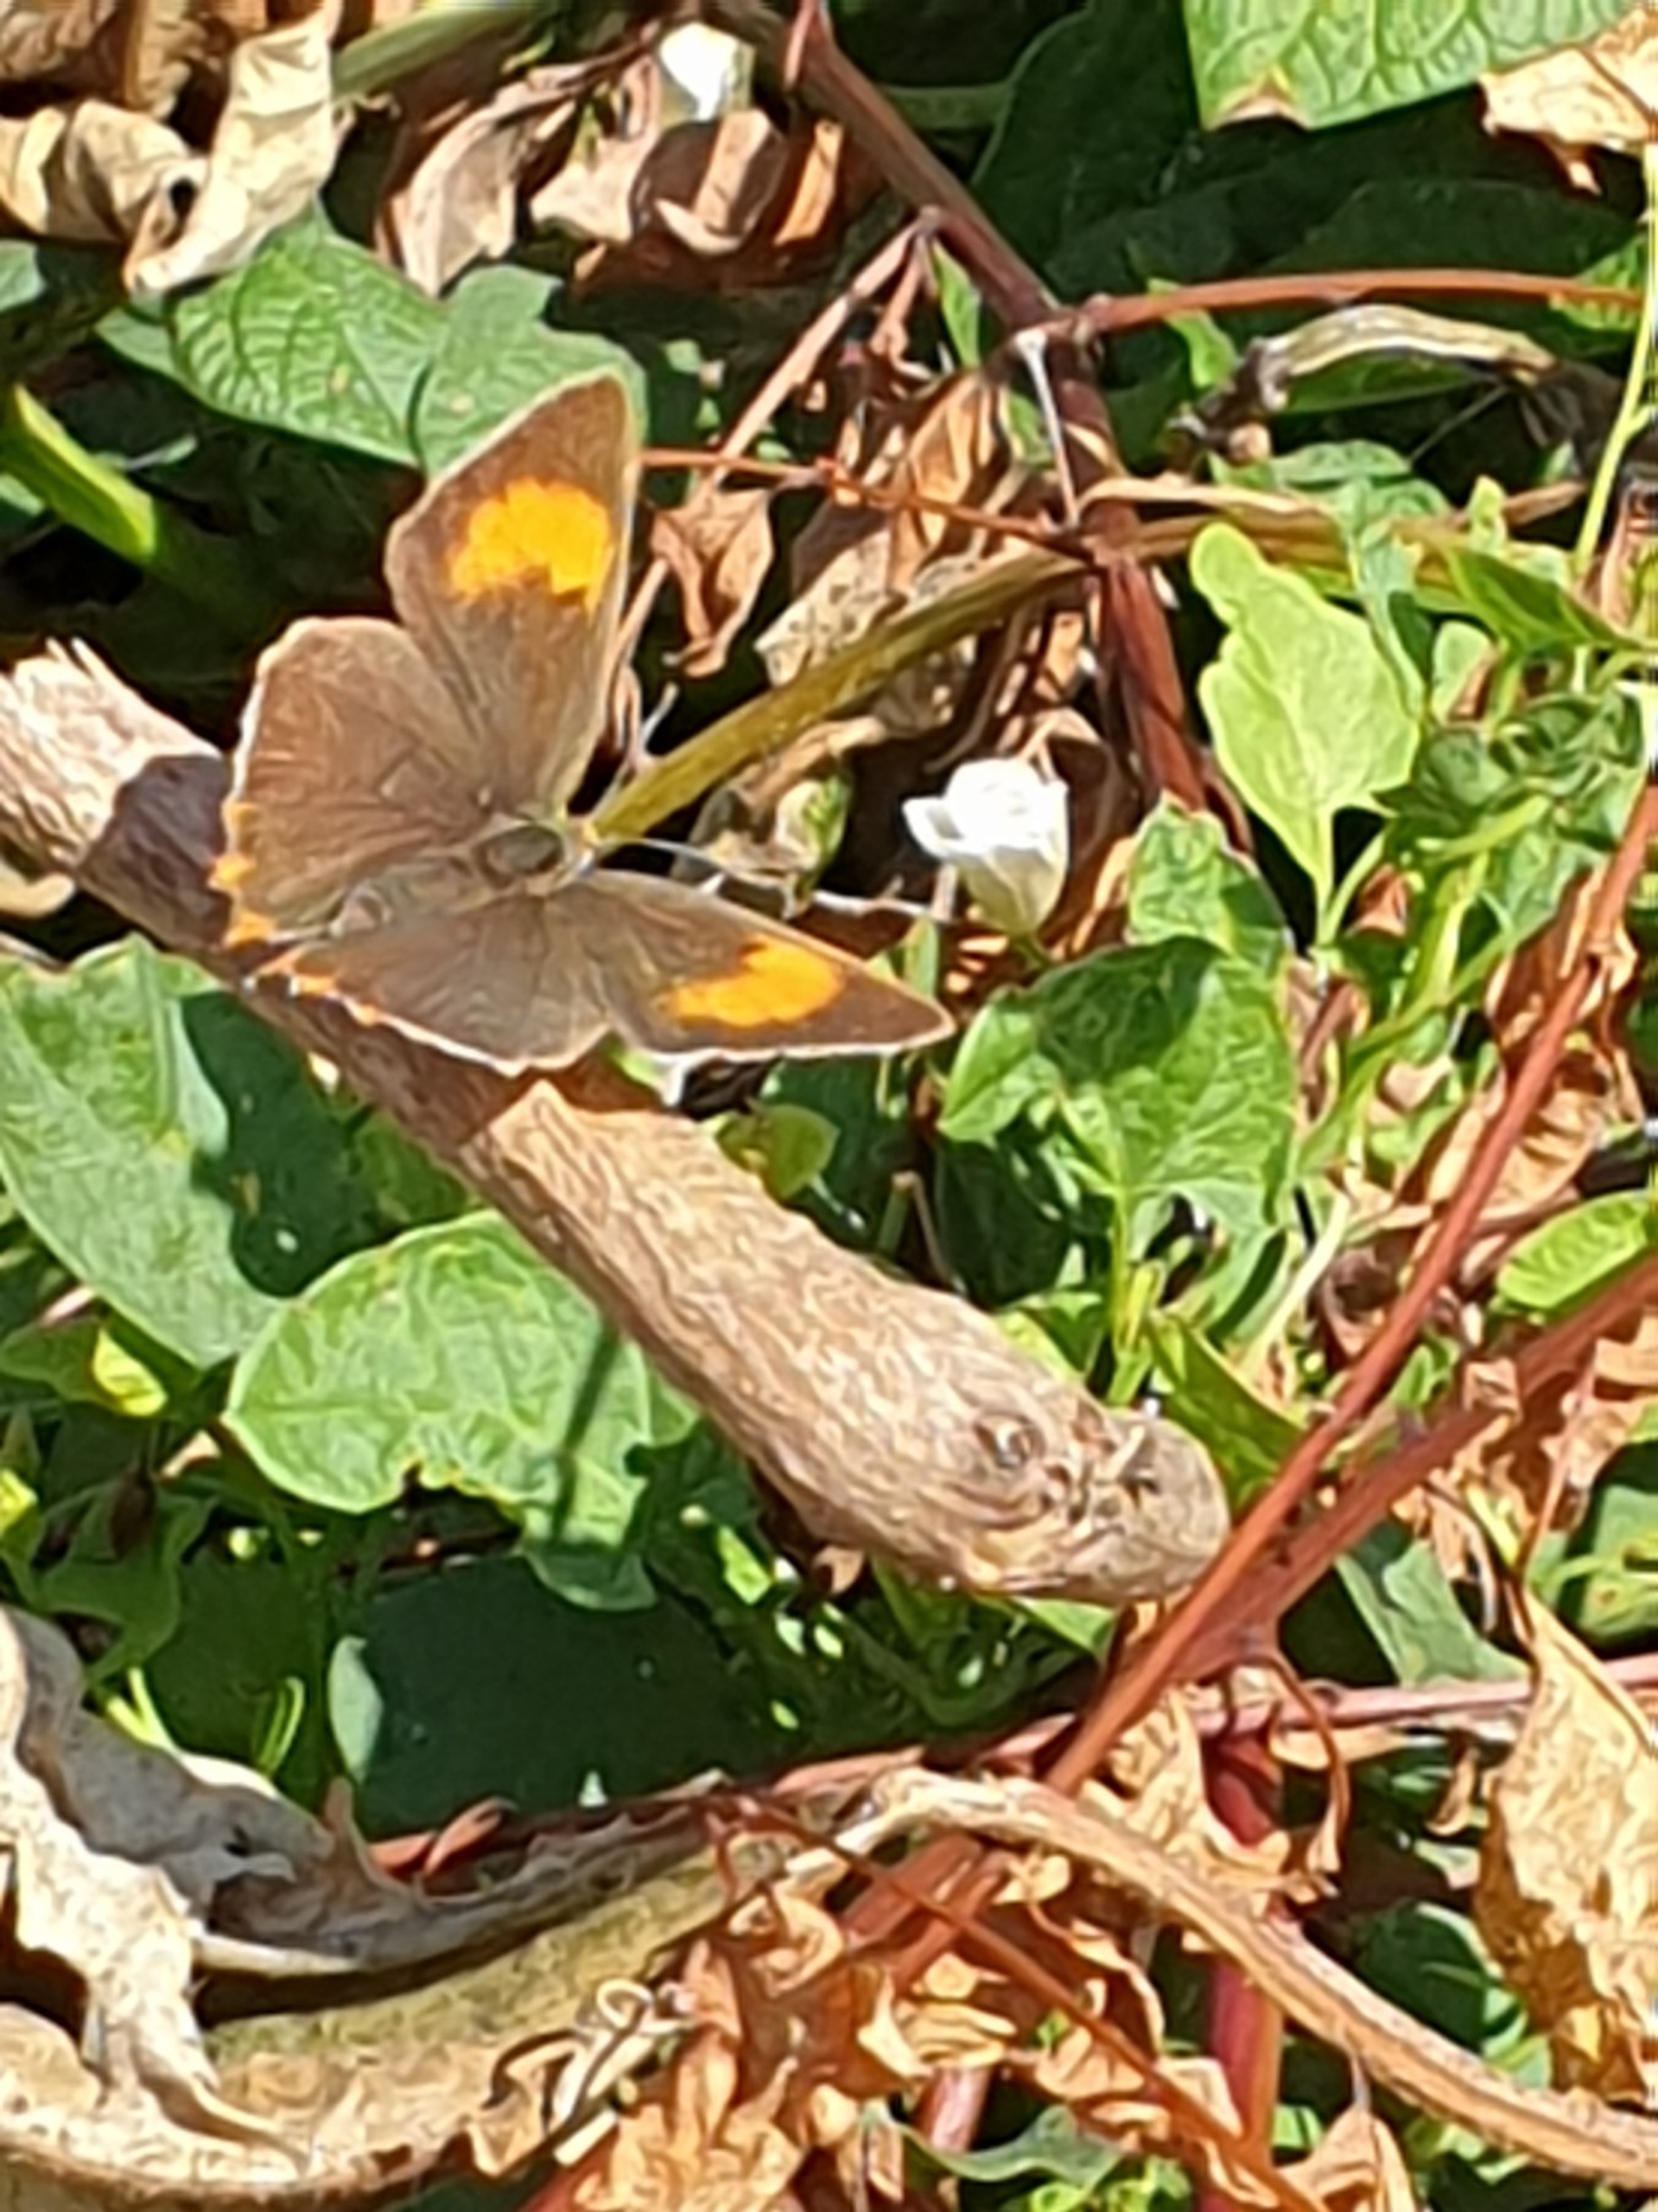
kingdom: Animalia
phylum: Arthropoda
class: Insecta
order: Lepidoptera
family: Lycaenidae
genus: Thecla
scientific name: Thecla betulae
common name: Guldhale
